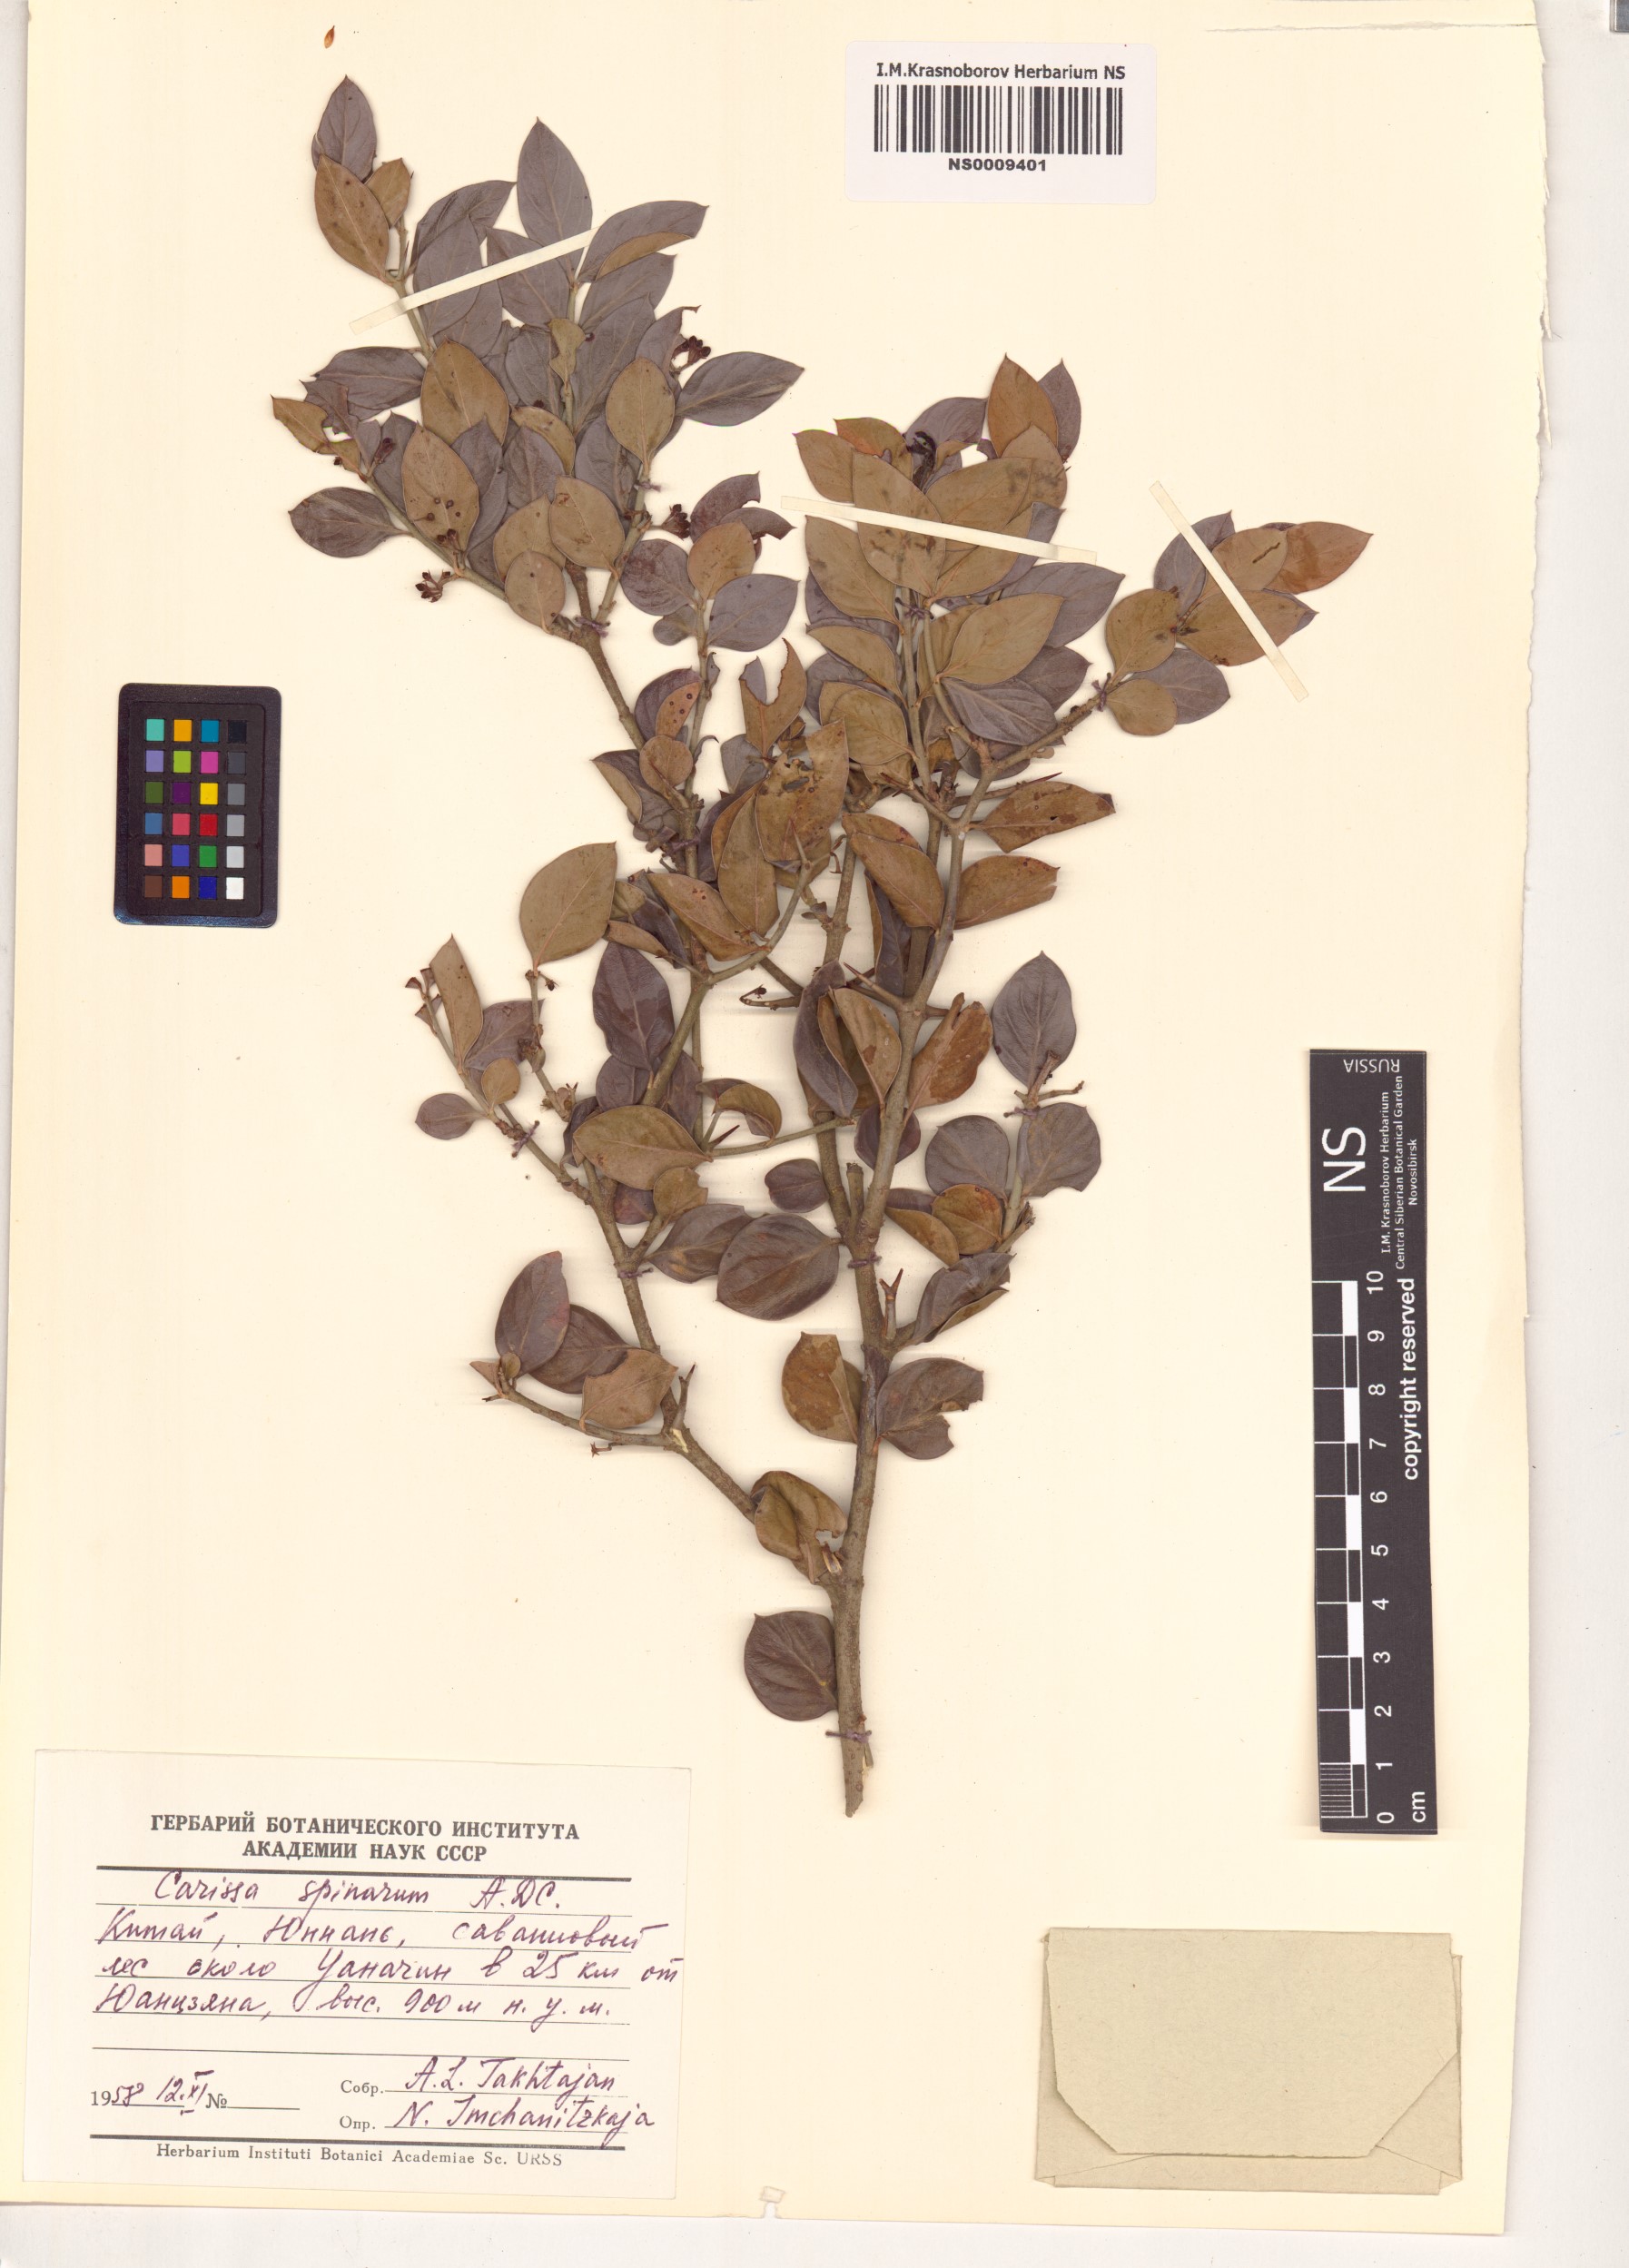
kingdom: Plantae
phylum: Tracheophyta
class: Magnoliopsida
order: Gentianales
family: Apocynaceae
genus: Carissa
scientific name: Carissa spinarum
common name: Egyptian carissa
